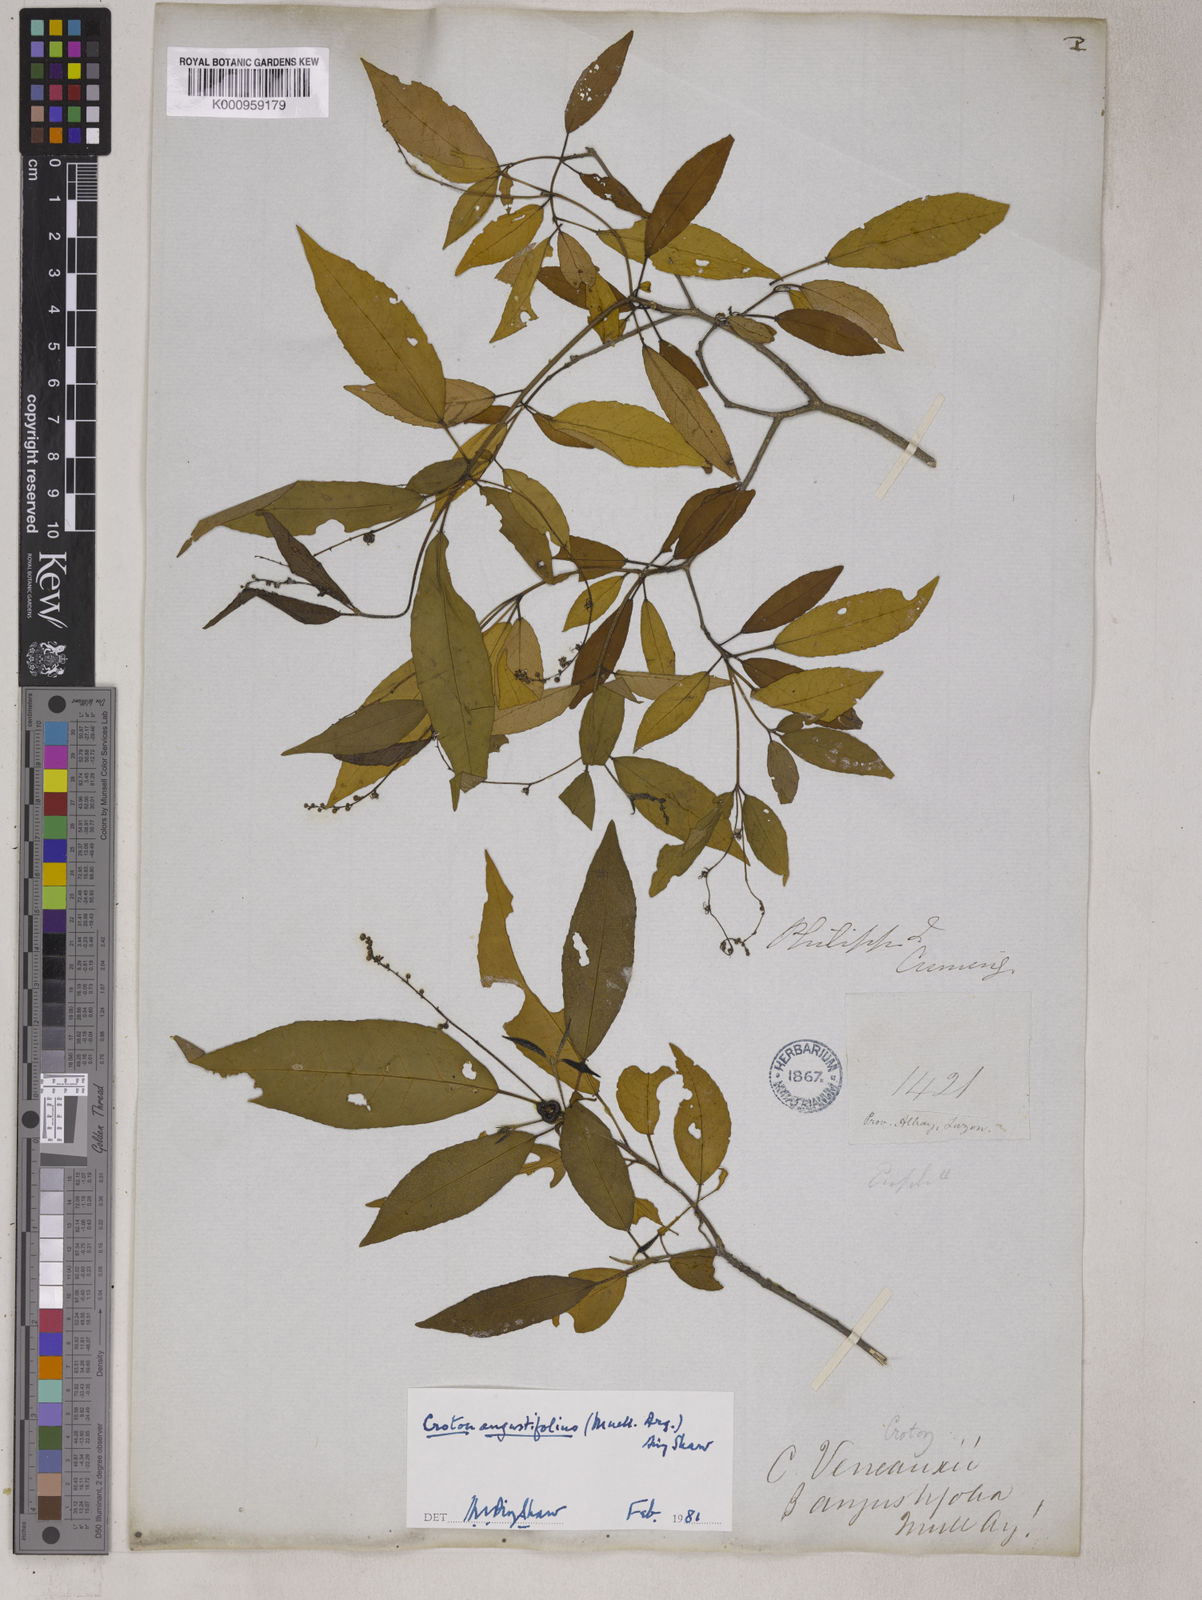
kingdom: Plantae
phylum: Tracheophyta
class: Magnoliopsida
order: Malpighiales
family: Euphorbiaceae
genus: Croton
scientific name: Croton
